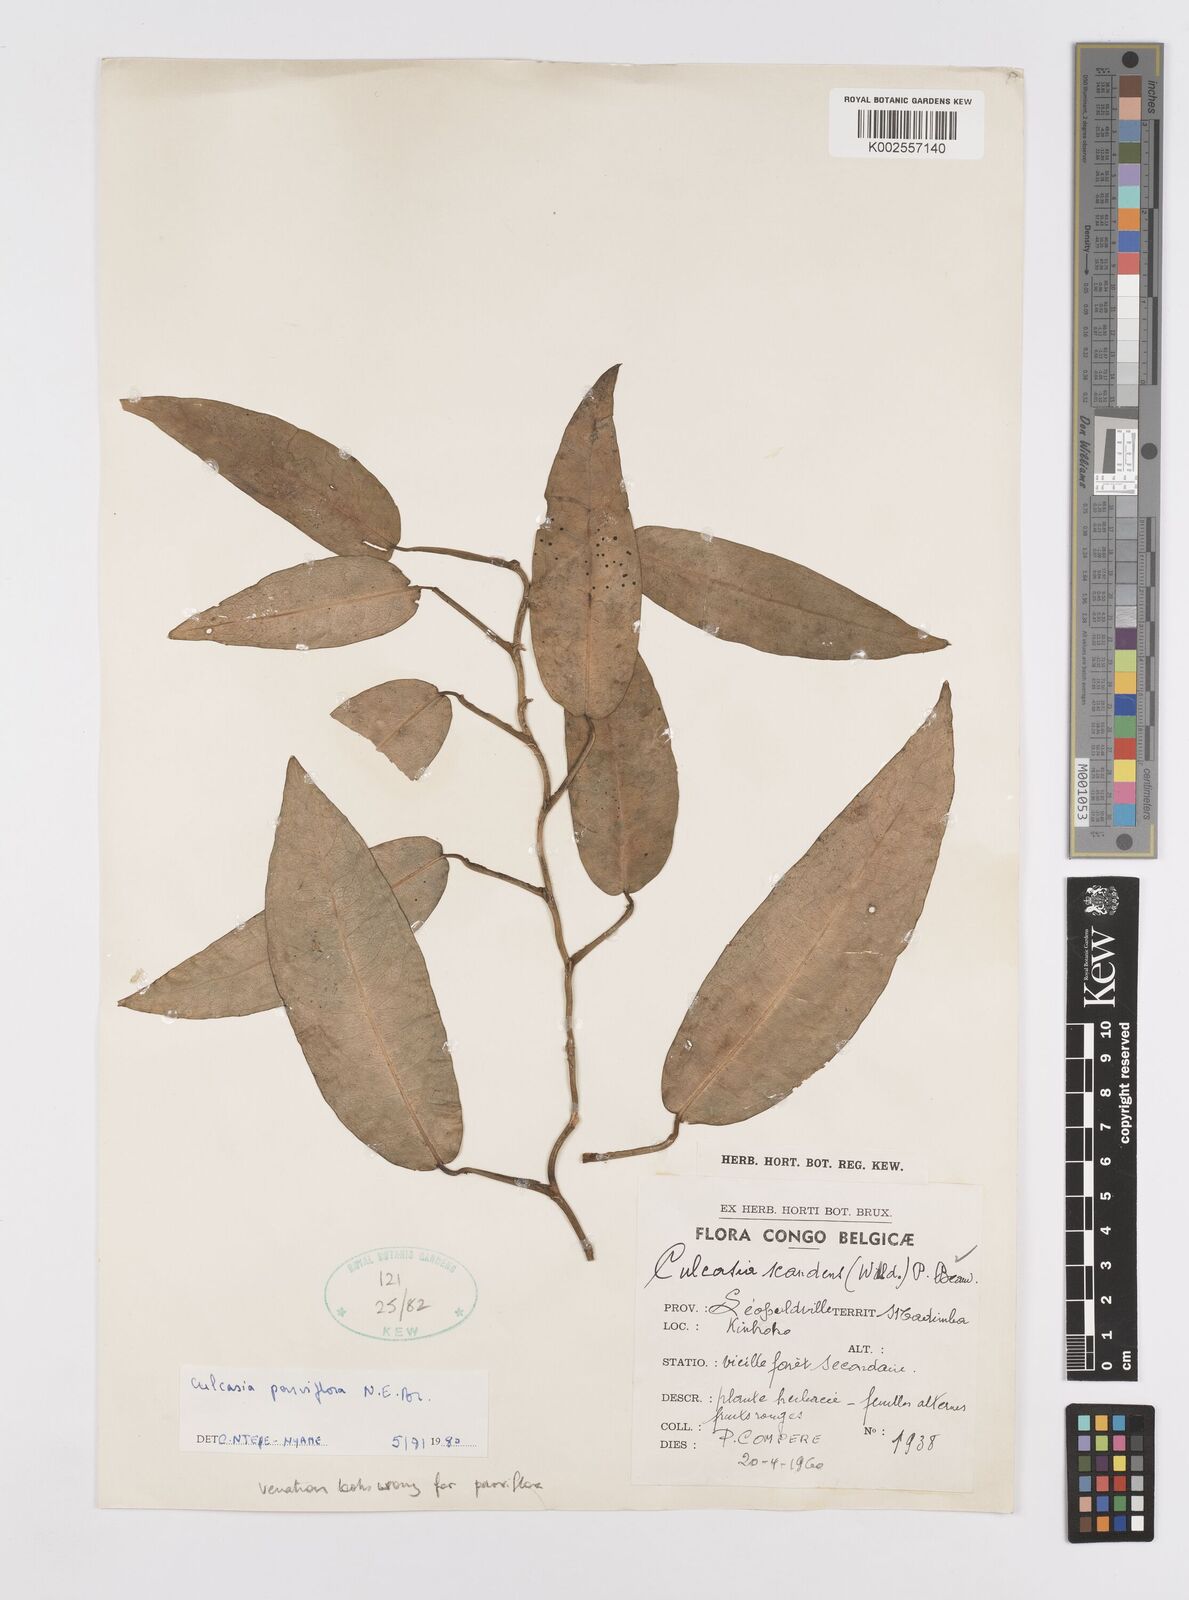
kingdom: Plantae
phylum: Tracheophyta
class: Liliopsida
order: Alismatales
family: Araceae
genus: Culcasia
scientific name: Culcasia parviflora
